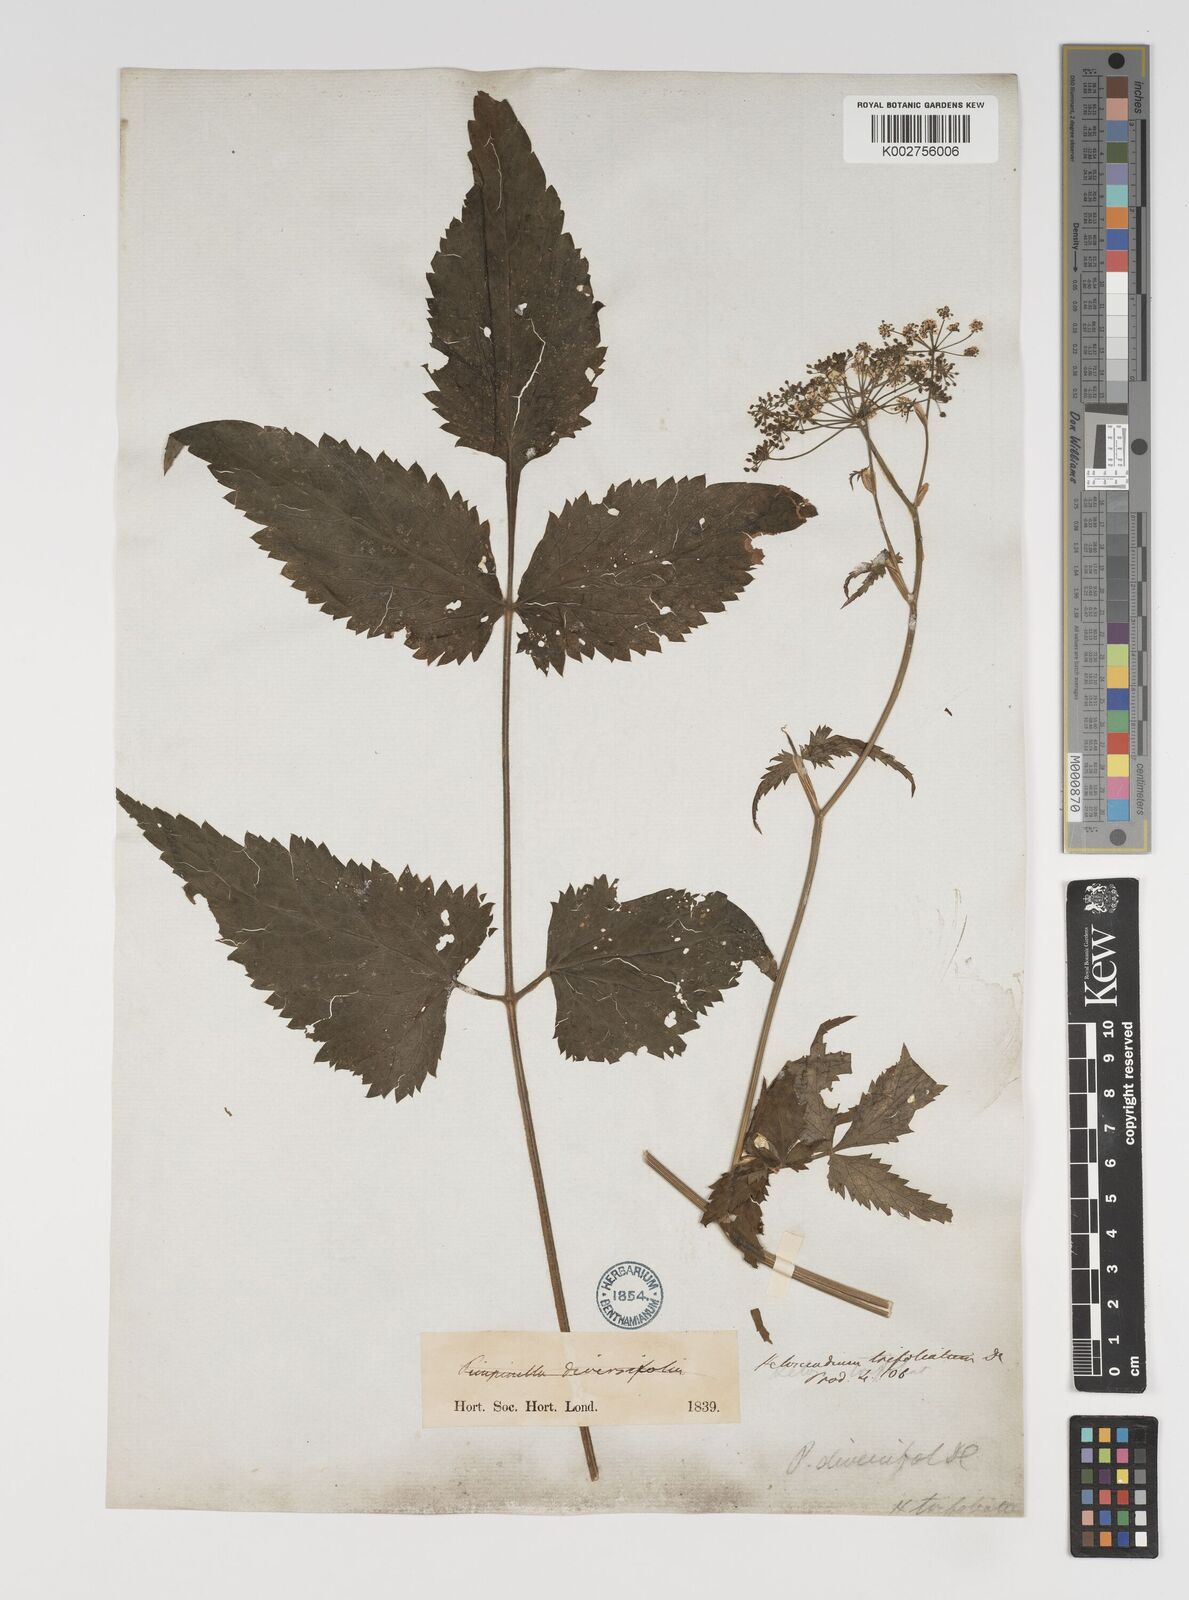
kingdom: Plantae
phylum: Tracheophyta
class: Magnoliopsida
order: Apiales
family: Apiaceae
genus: Pimpinella
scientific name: Pimpinella diversifolia
